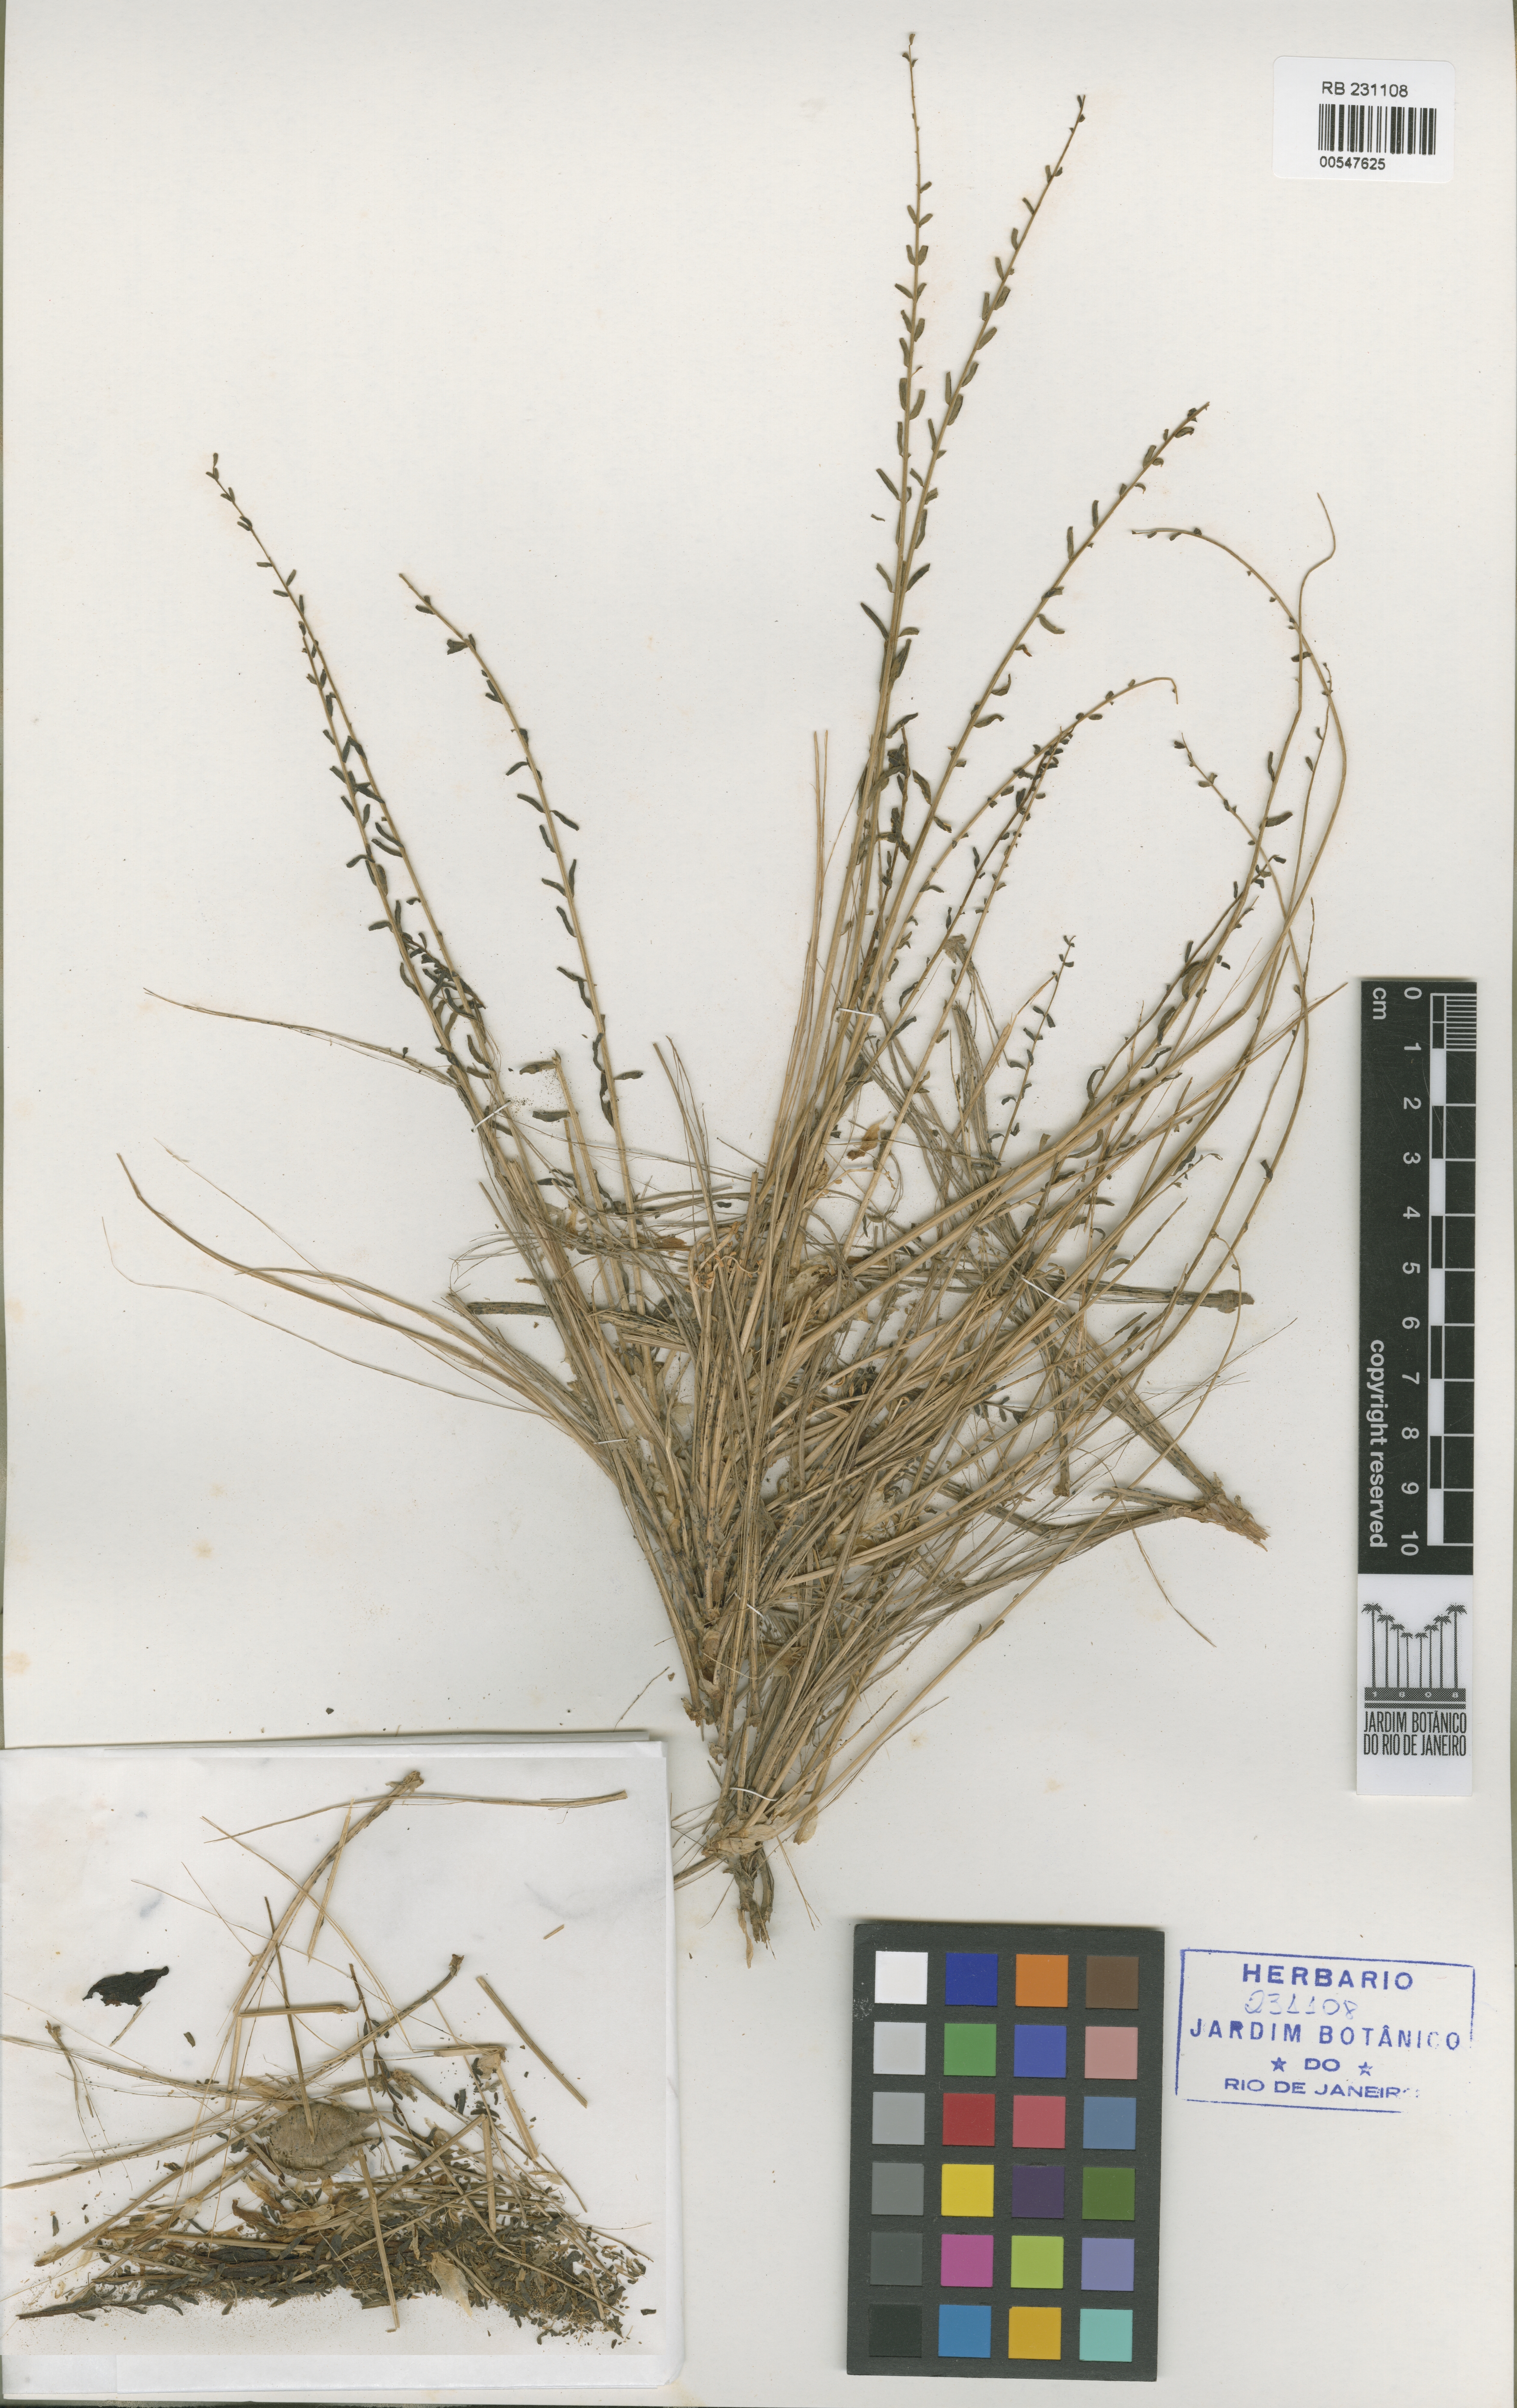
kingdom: Plantae
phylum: Tracheophyta
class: Magnoliopsida
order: Fabales
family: Fabaceae
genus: Astragalus
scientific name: Astragalus olgae
